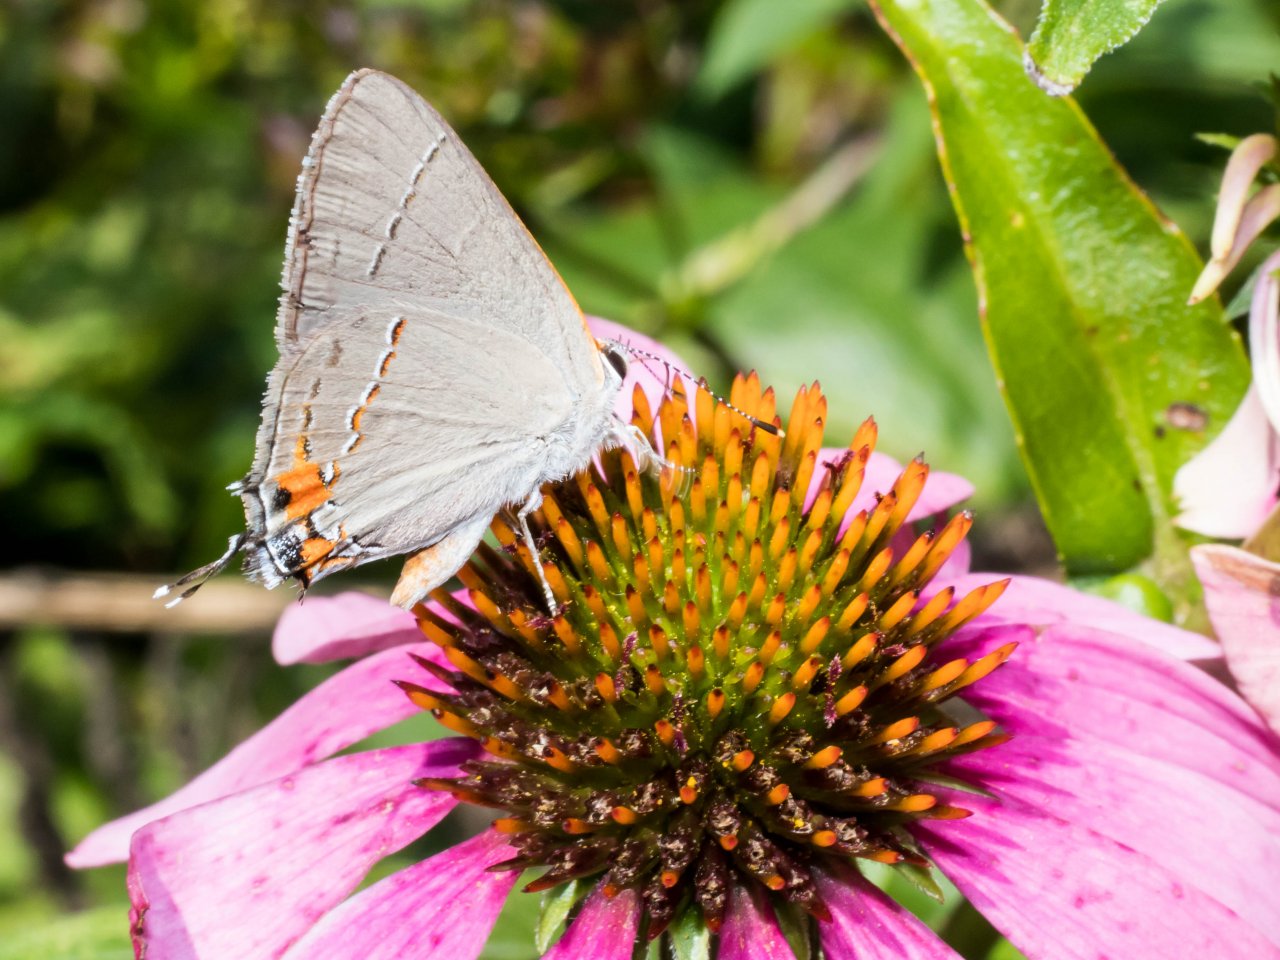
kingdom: Animalia
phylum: Arthropoda
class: Insecta
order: Lepidoptera
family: Lycaenidae
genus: Strymon
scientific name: Strymon melinus
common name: Gray Hairstreak
